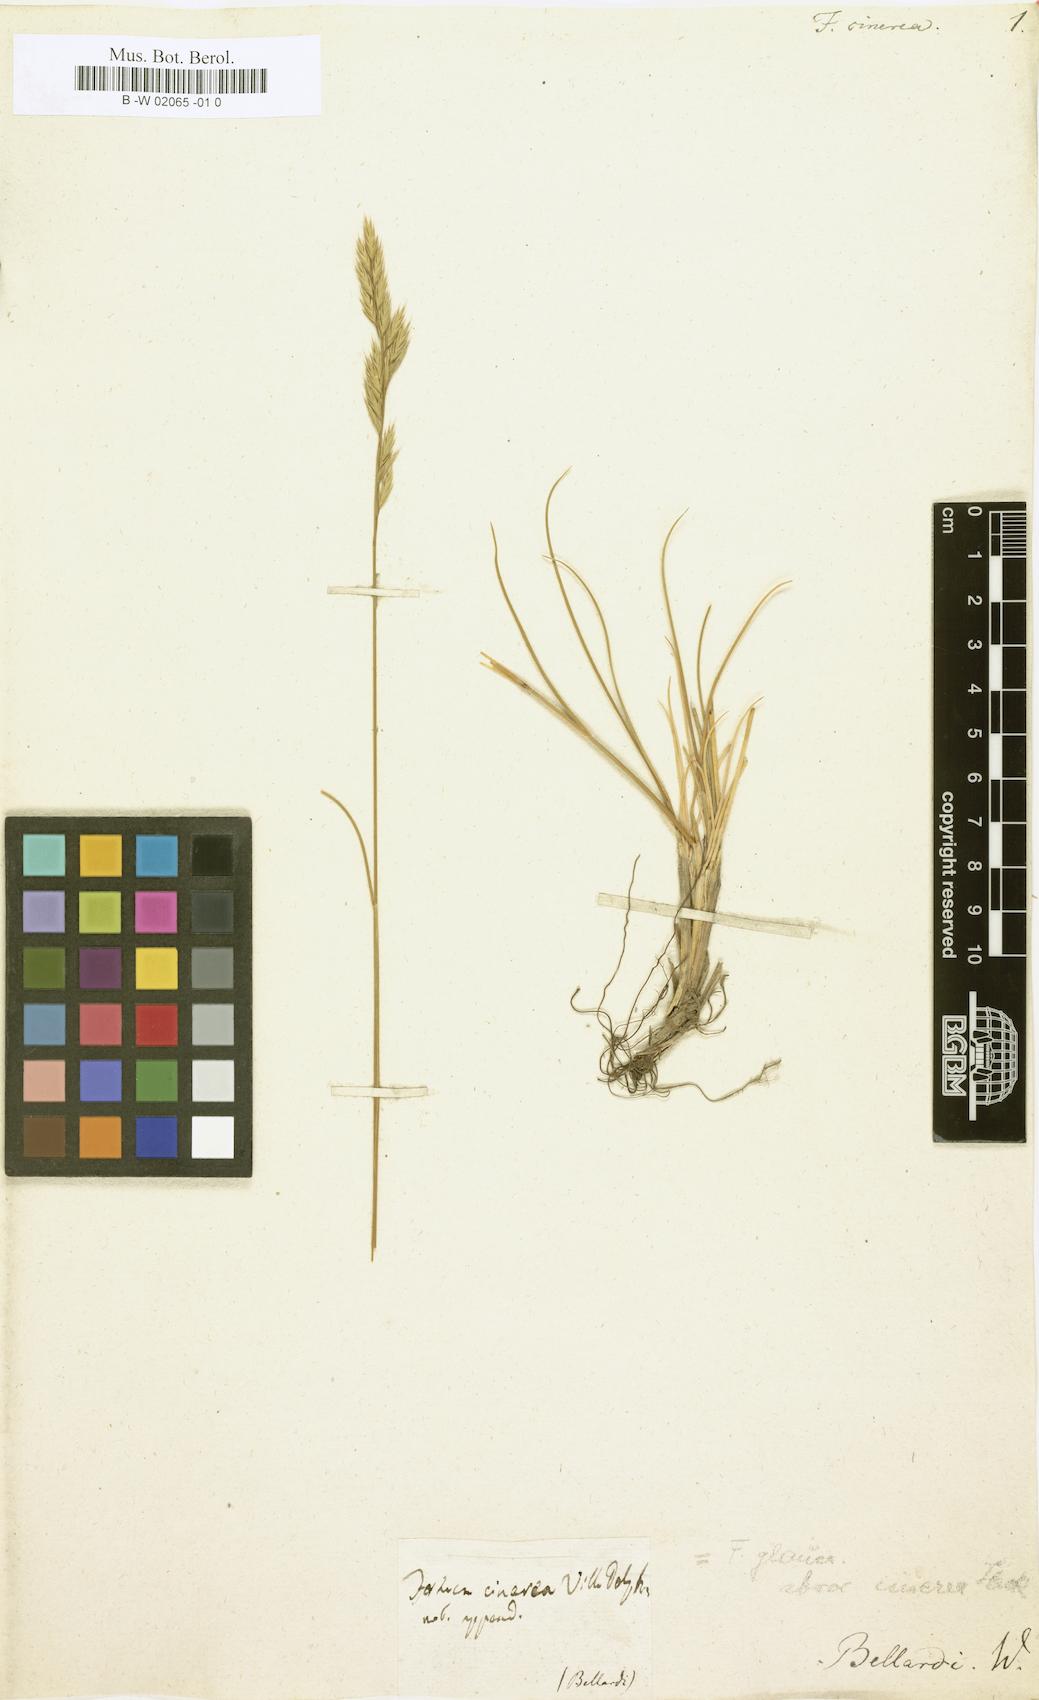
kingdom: Plantae
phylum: Tracheophyta
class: Liliopsida
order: Poales
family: Poaceae
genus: Festuca
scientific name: Festuca cinerea
